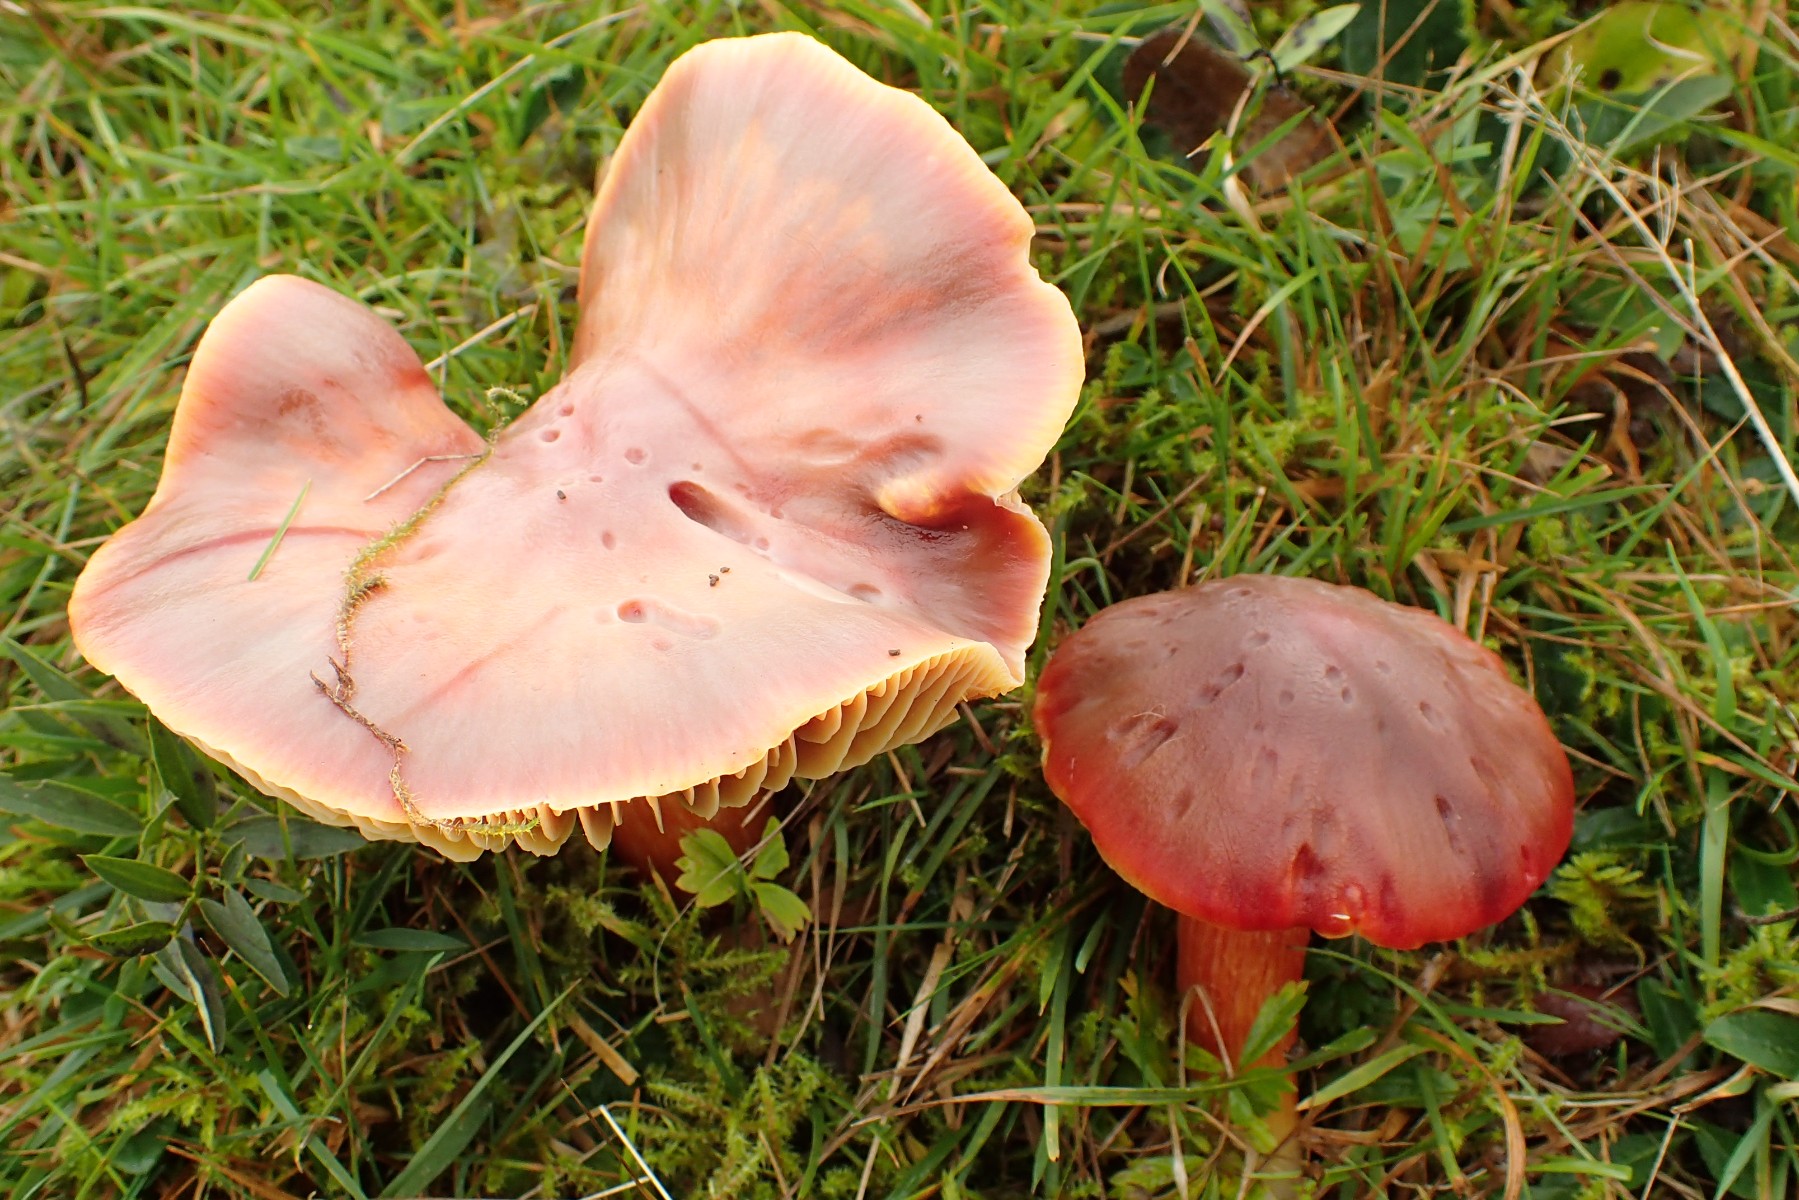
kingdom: Fungi
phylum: Basidiomycota
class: Agaricomycetes
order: Agaricales
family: Hygrophoraceae
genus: Hygrocybe
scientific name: Hygrocybe punicea
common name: skarlagen-vokshat
